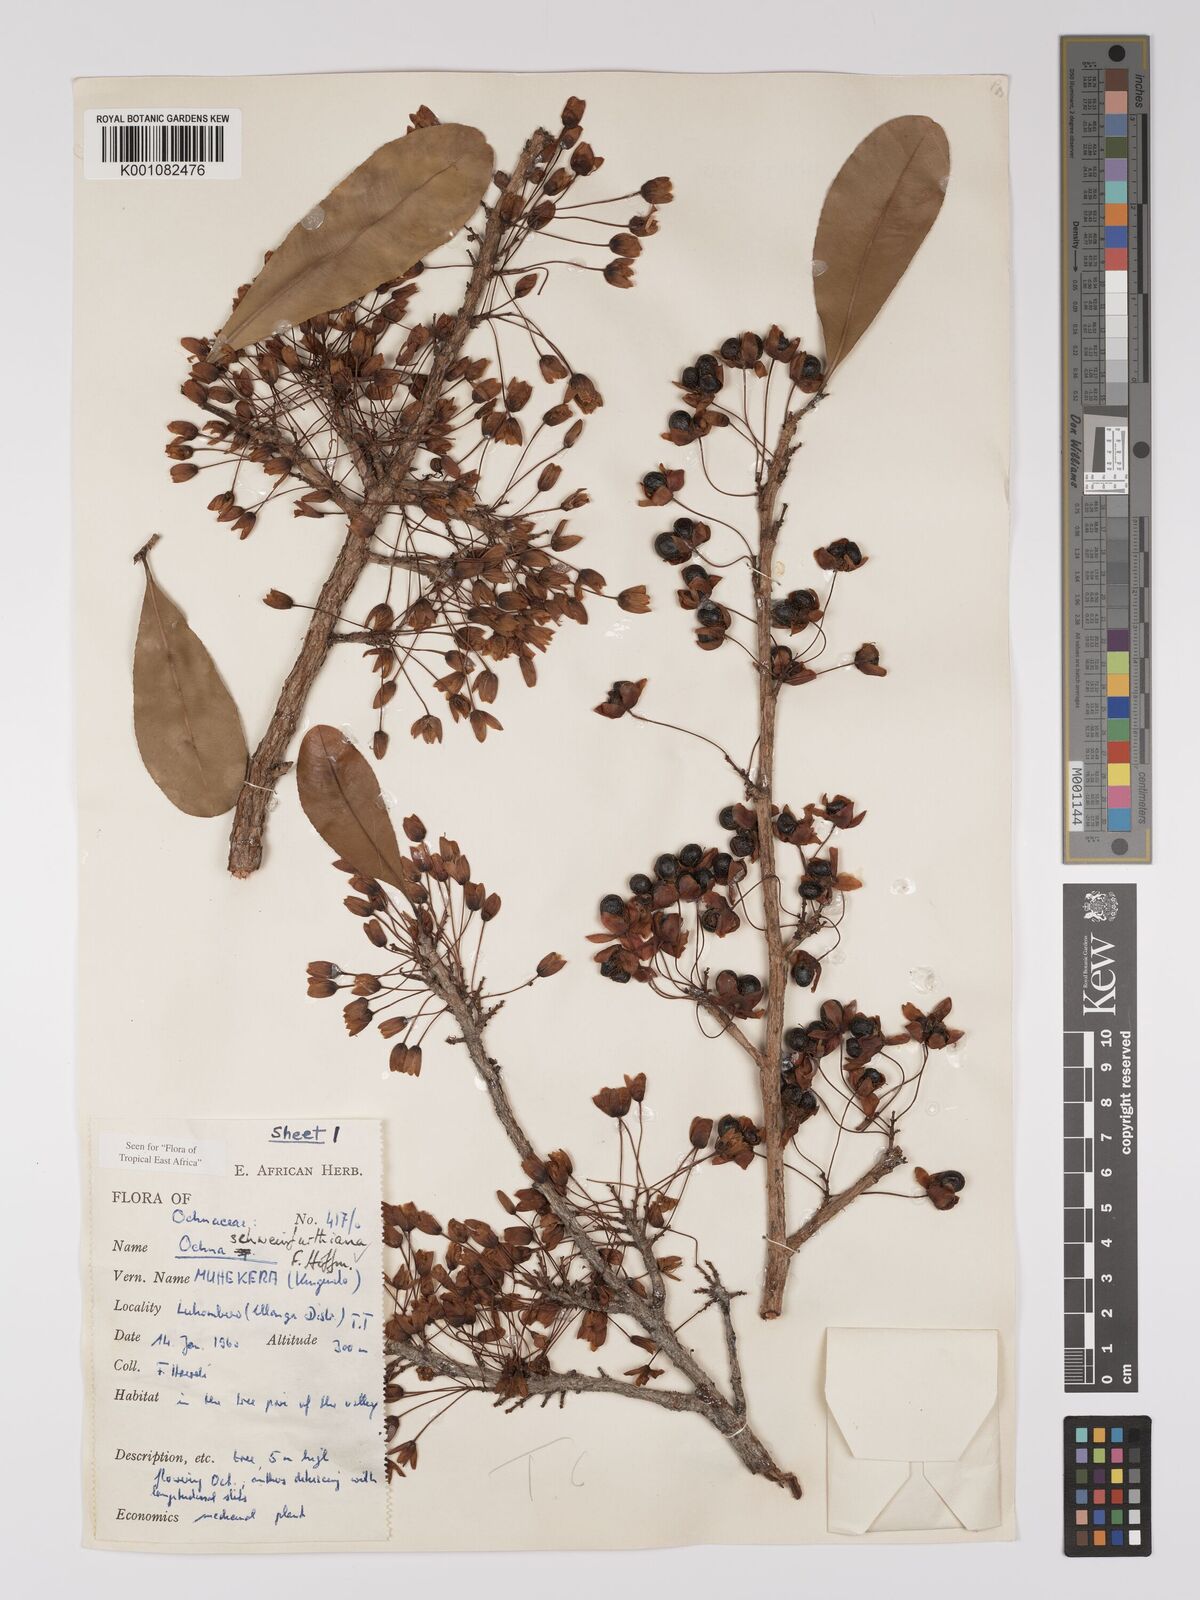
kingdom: Plantae
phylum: Tracheophyta
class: Magnoliopsida
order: Malpighiales
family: Ochnaceae
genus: Ochna
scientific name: Ochna schweinfurthiana
